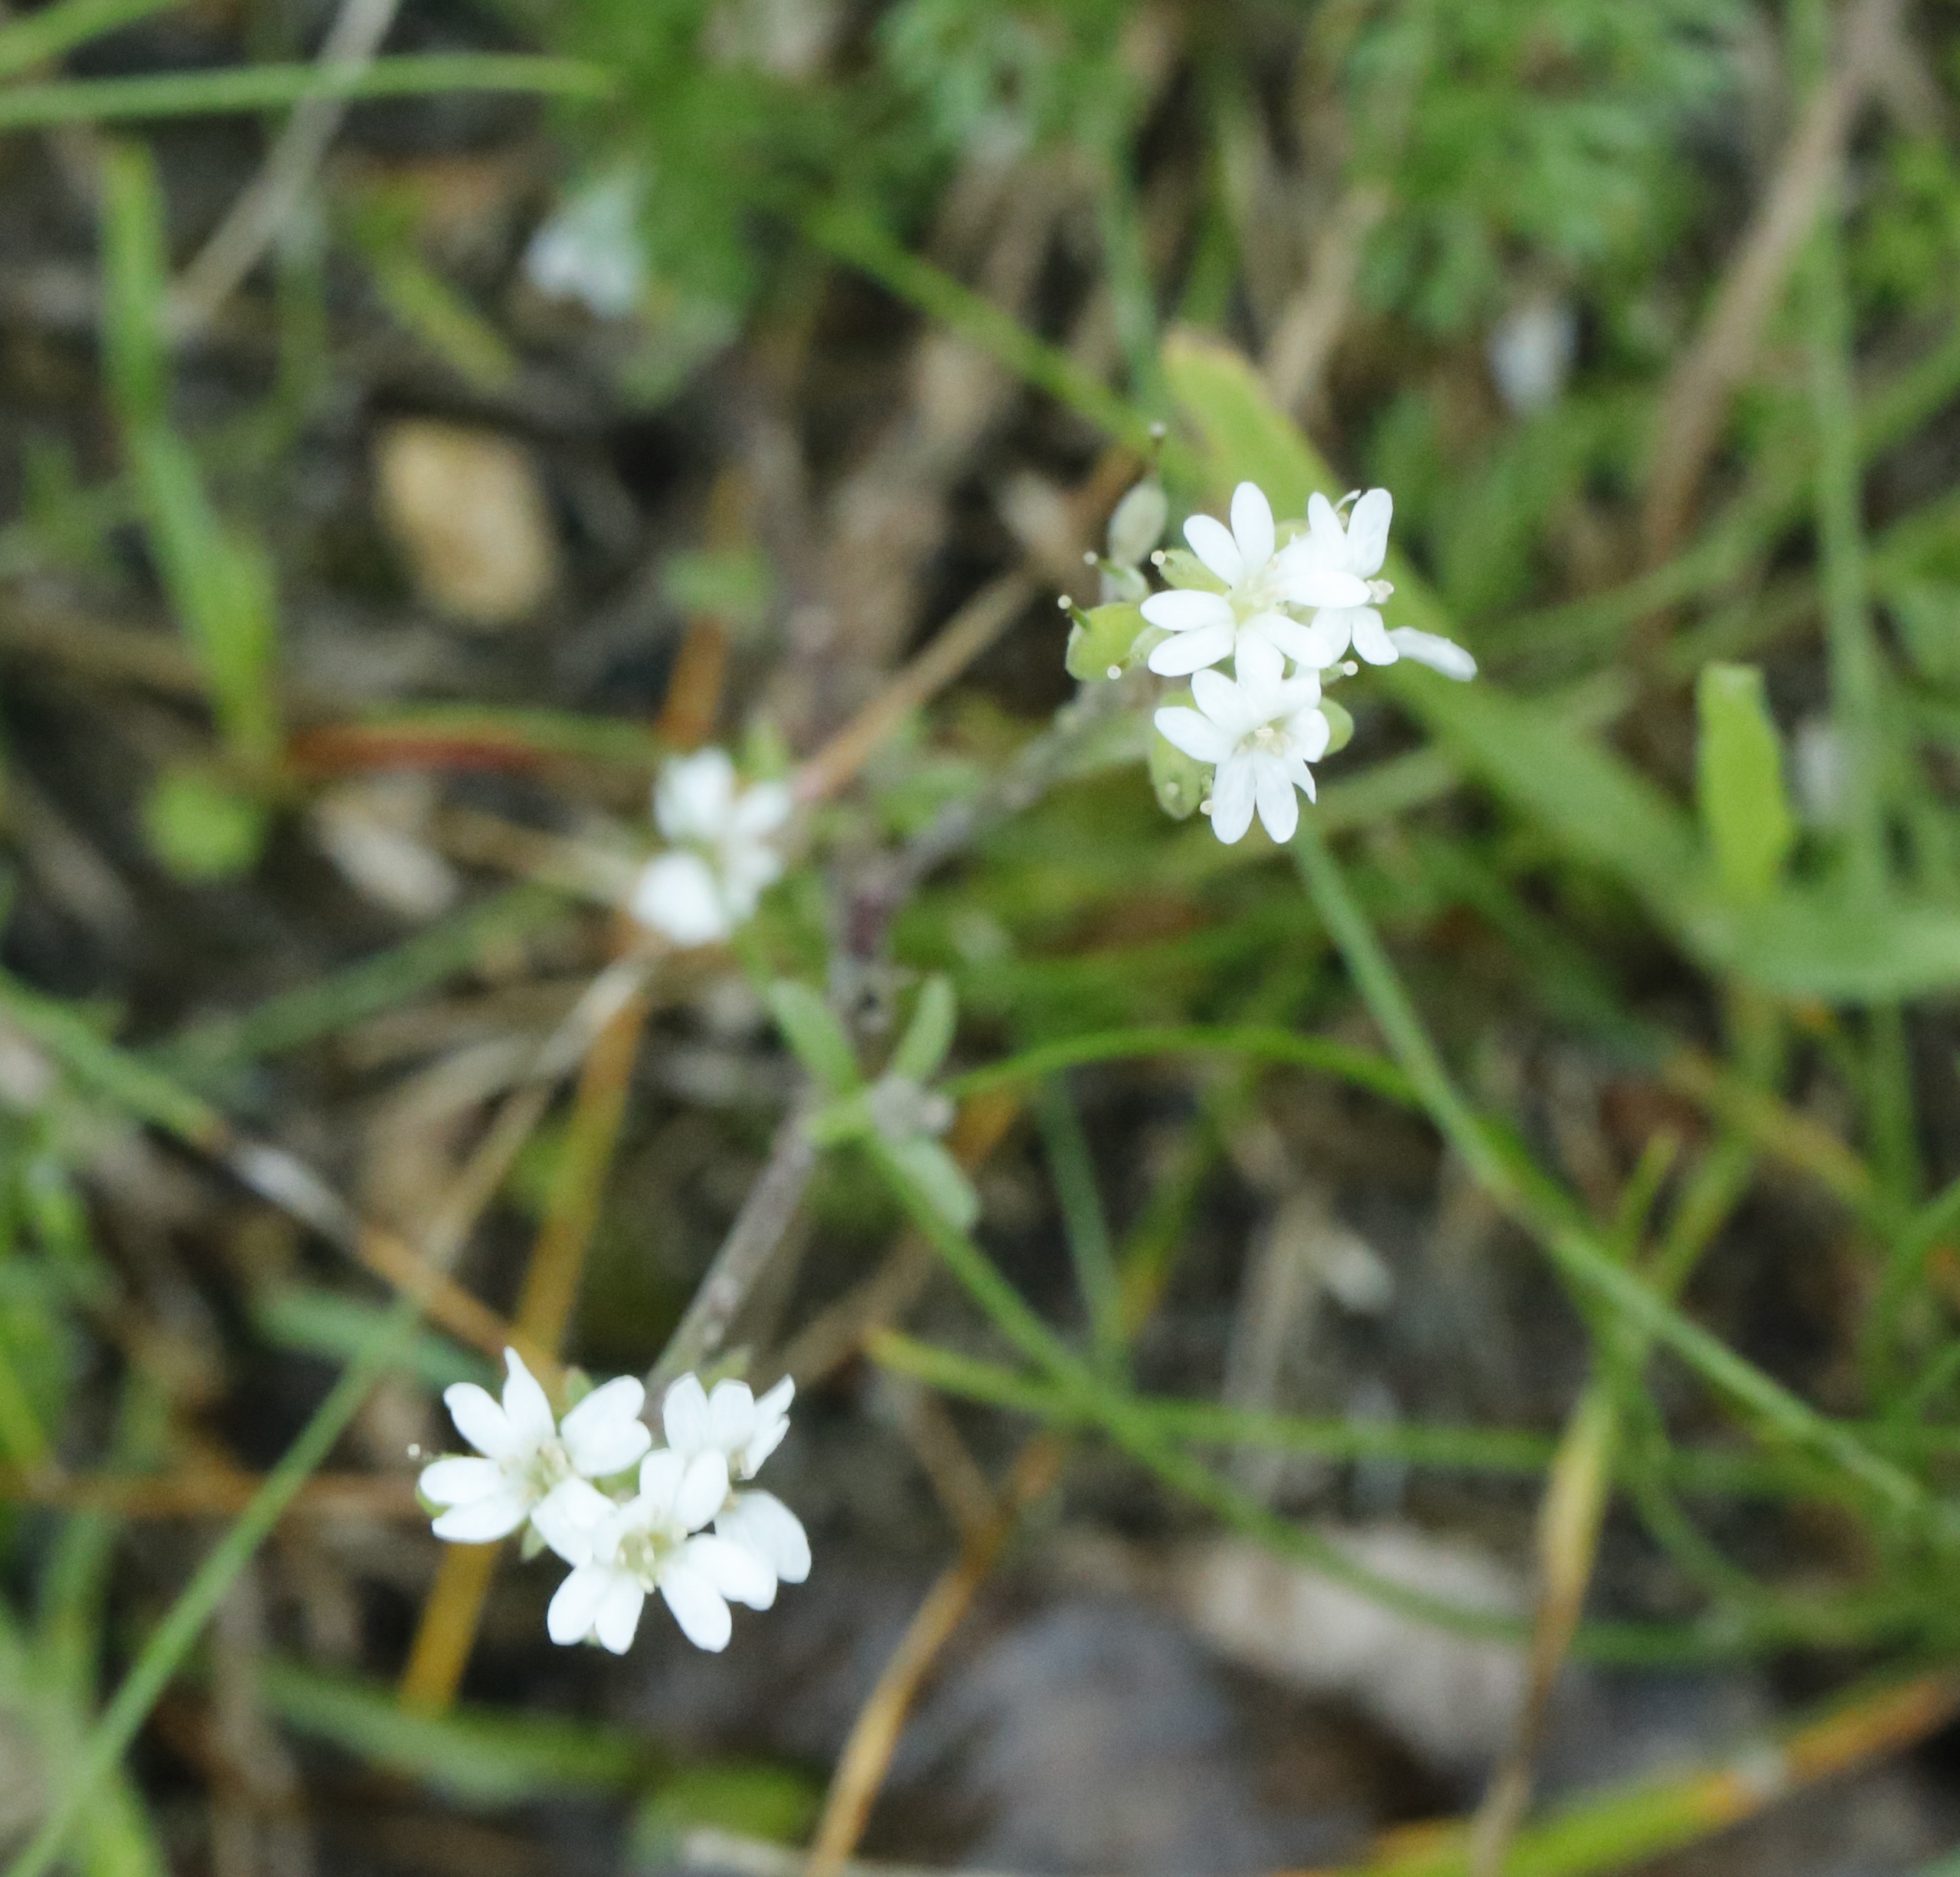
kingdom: Plantae
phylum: Tracheophyta
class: Magnoliopsida
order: Brassicales
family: Brassicaceae
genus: Berteroa
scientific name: Berteroa incana
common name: Kløvplade
